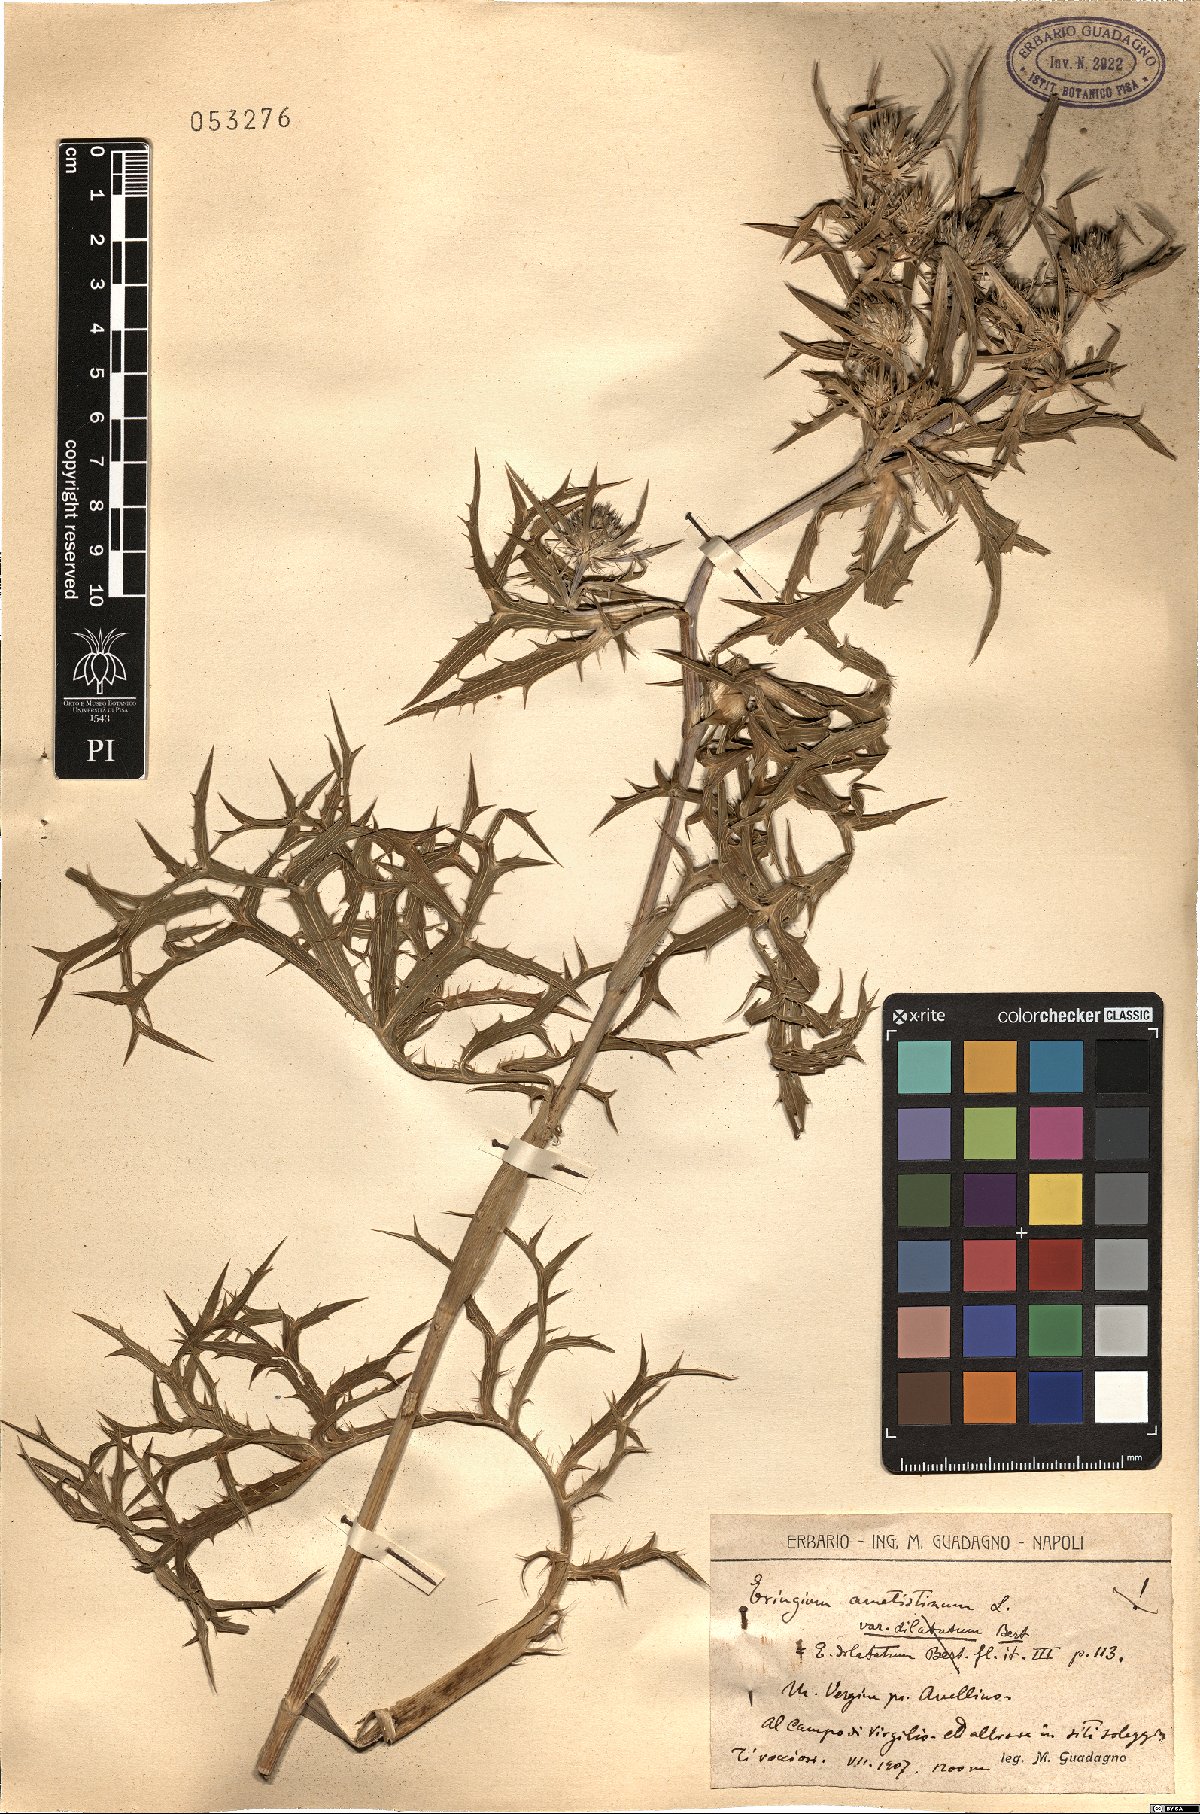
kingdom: Plantae
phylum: Tracheophyta
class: Magnoliopsida
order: Apiales
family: Apiaceae
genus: Eryngium
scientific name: Eryngium amethystinum
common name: Amethyst eryngo
